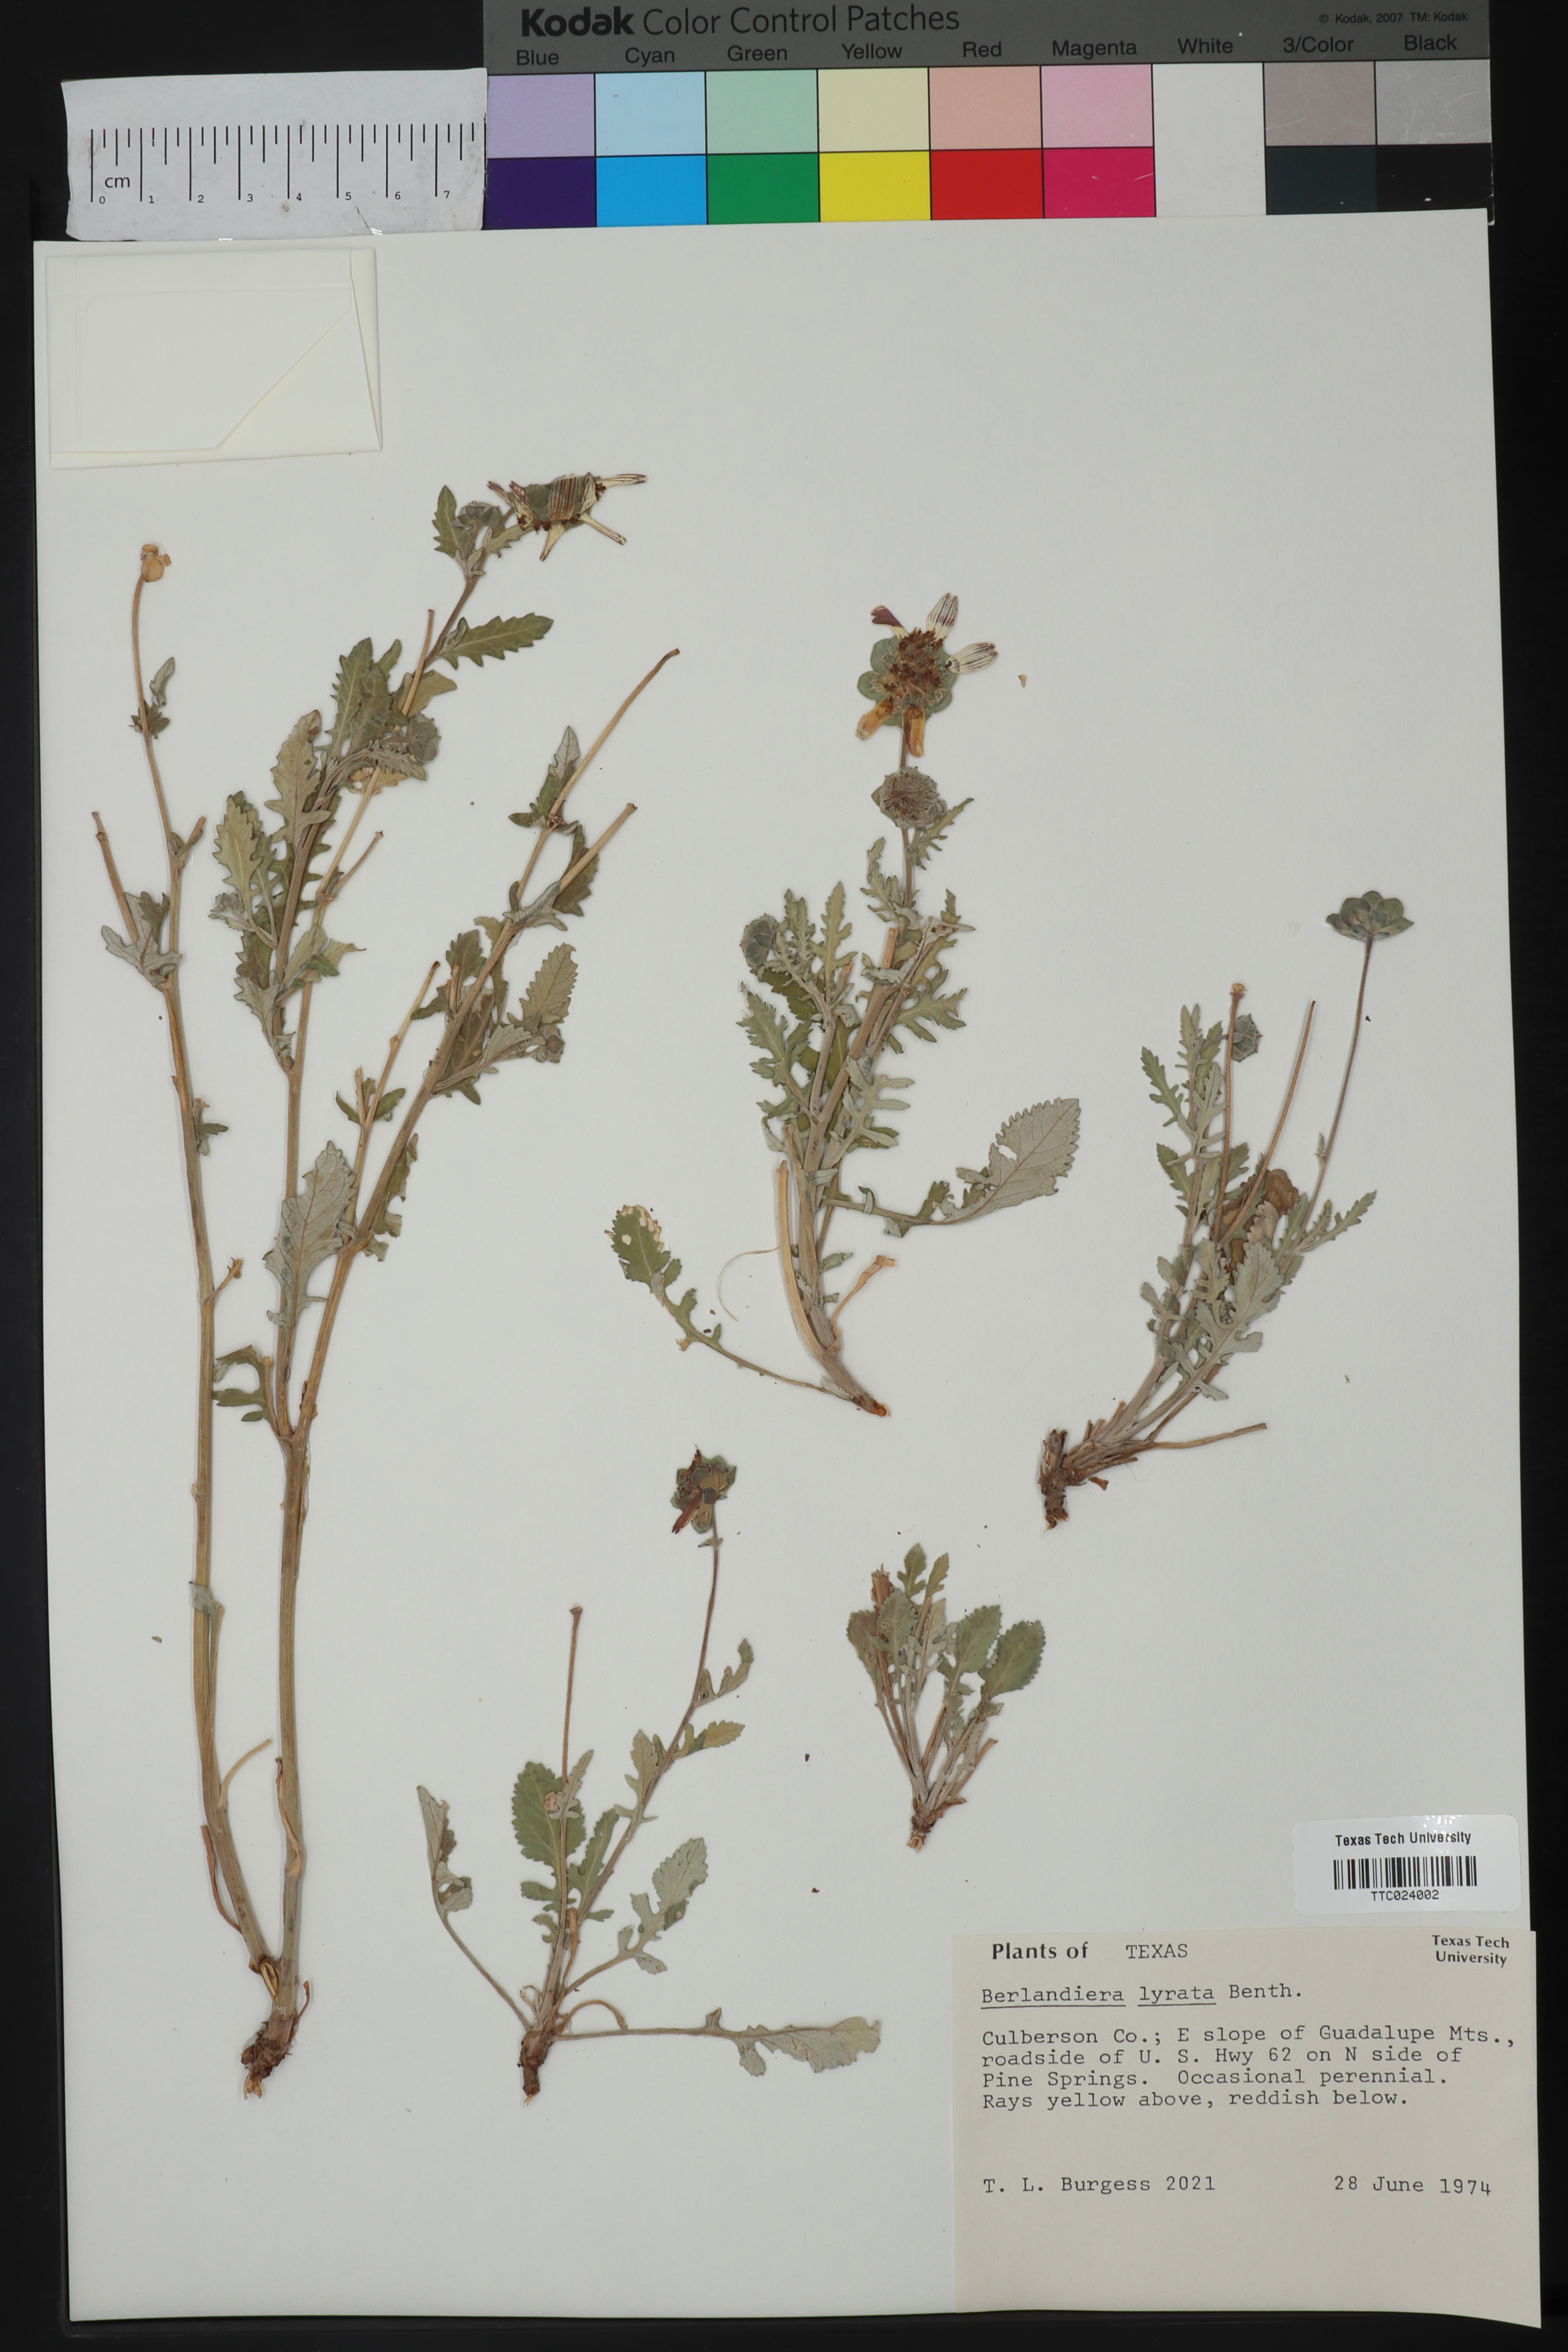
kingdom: Plantae
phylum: Tracheophyta
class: Magnoliopsida
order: Asterales
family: Asteraceae
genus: Berlandiera
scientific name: Berlandiera lyrata
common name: Chocolate-flower
